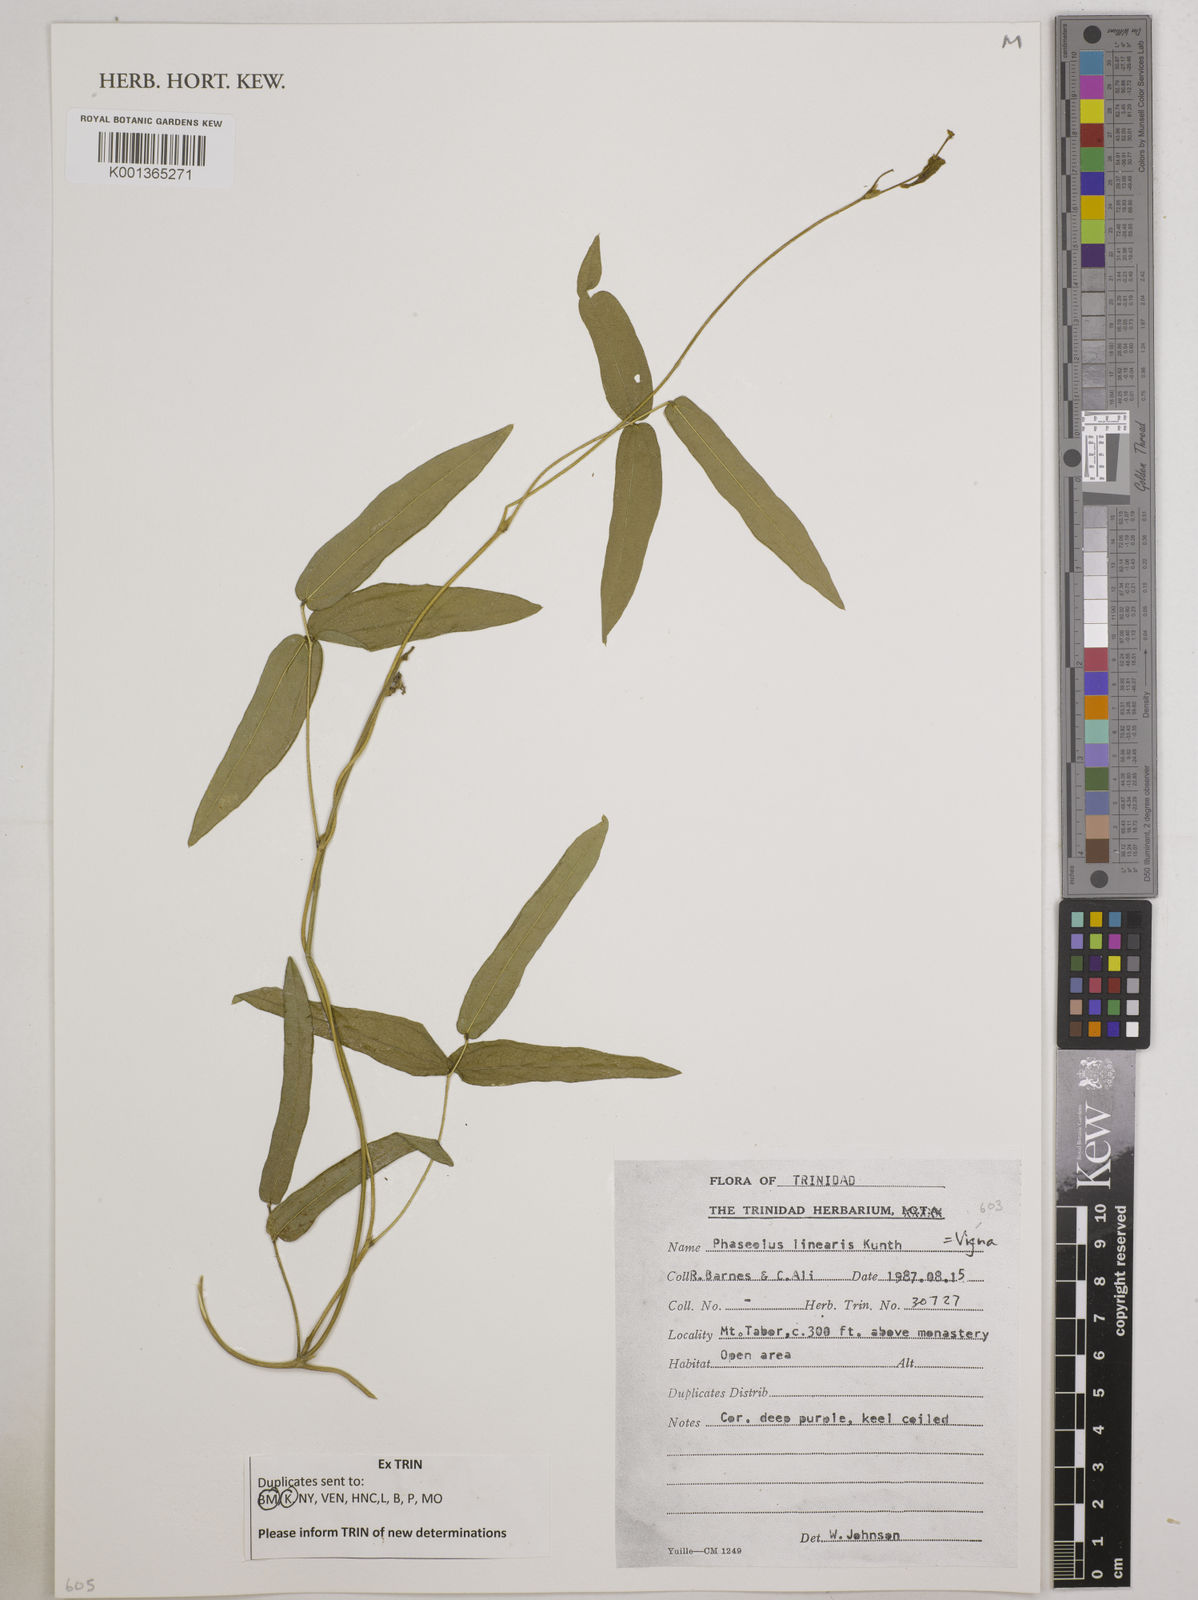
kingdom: Plantae
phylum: Tracheophyta
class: Magnoliopsida
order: Fabales
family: Fabaceae
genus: Helicotropis
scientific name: Helicotropis linearis
